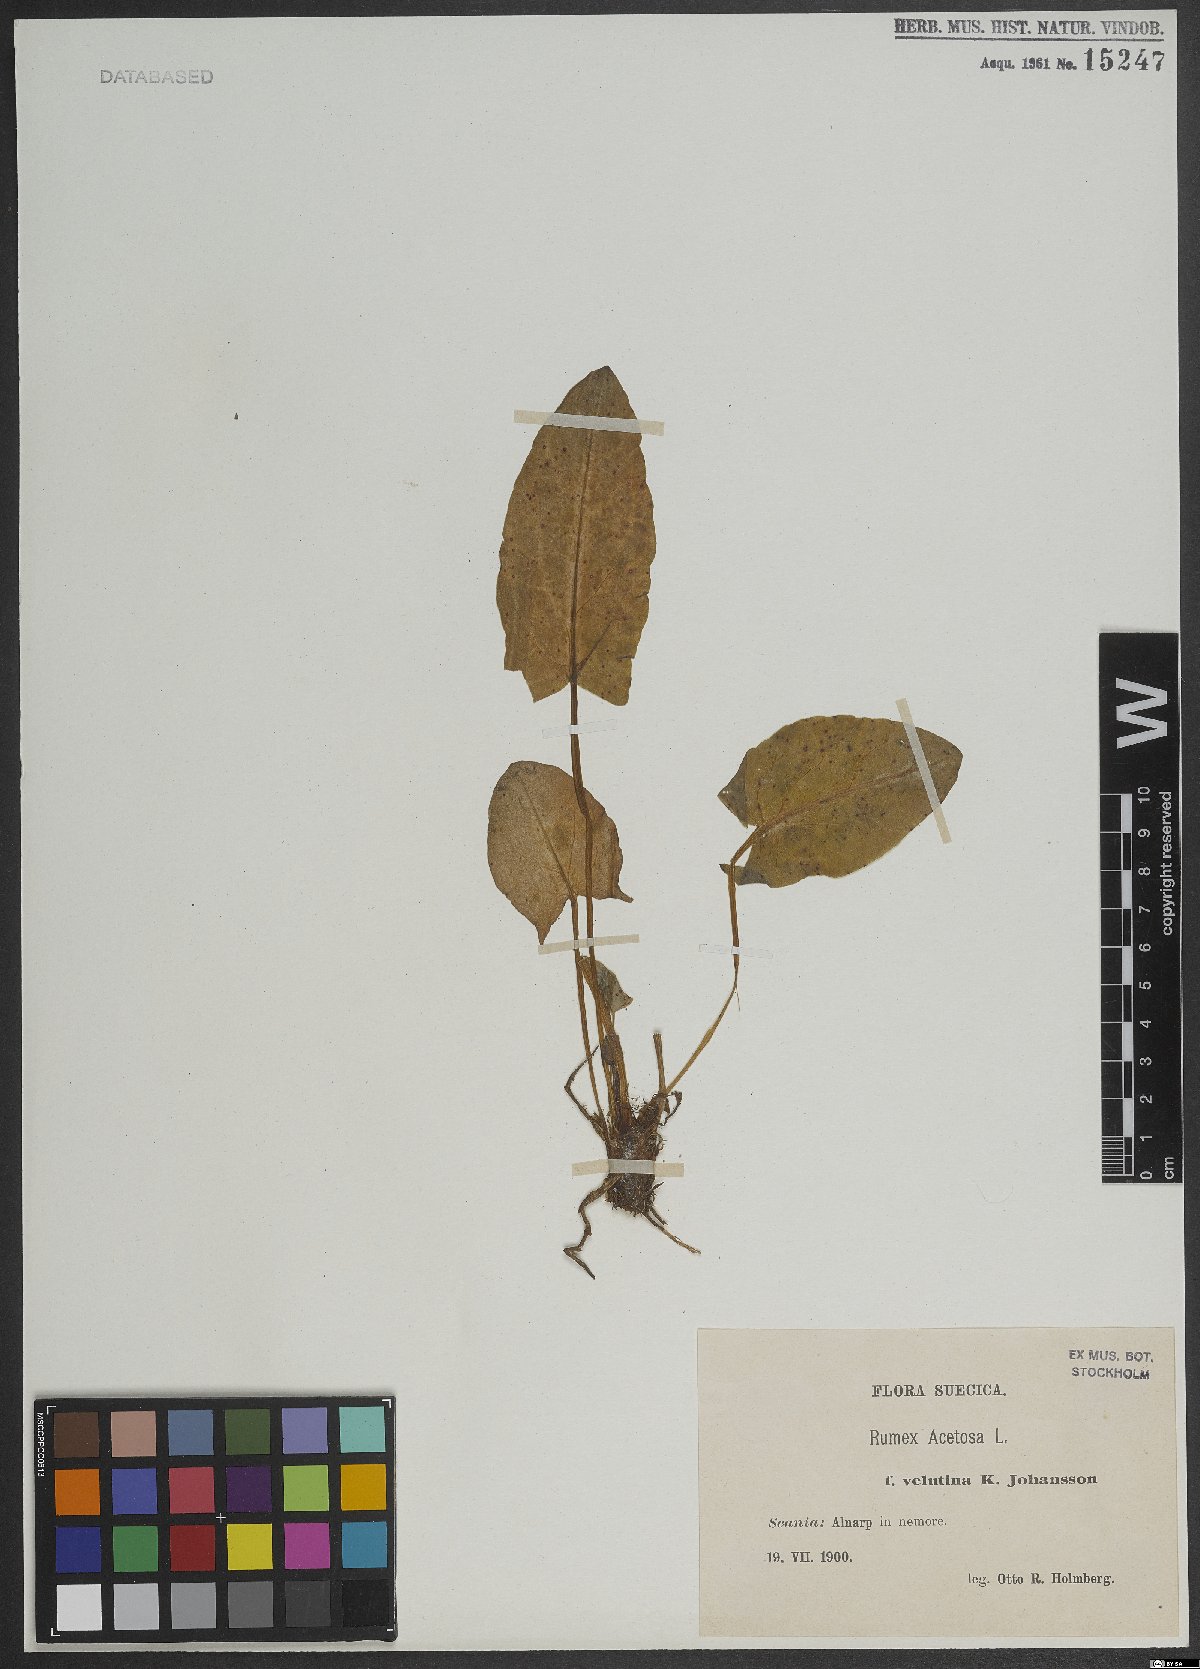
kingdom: Plantae
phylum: Tracheophyta
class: Magnoliopsida
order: Caryophyllales
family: Polygonaceae
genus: Rumex
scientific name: Rumex acetosa
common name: Garden sorrel
